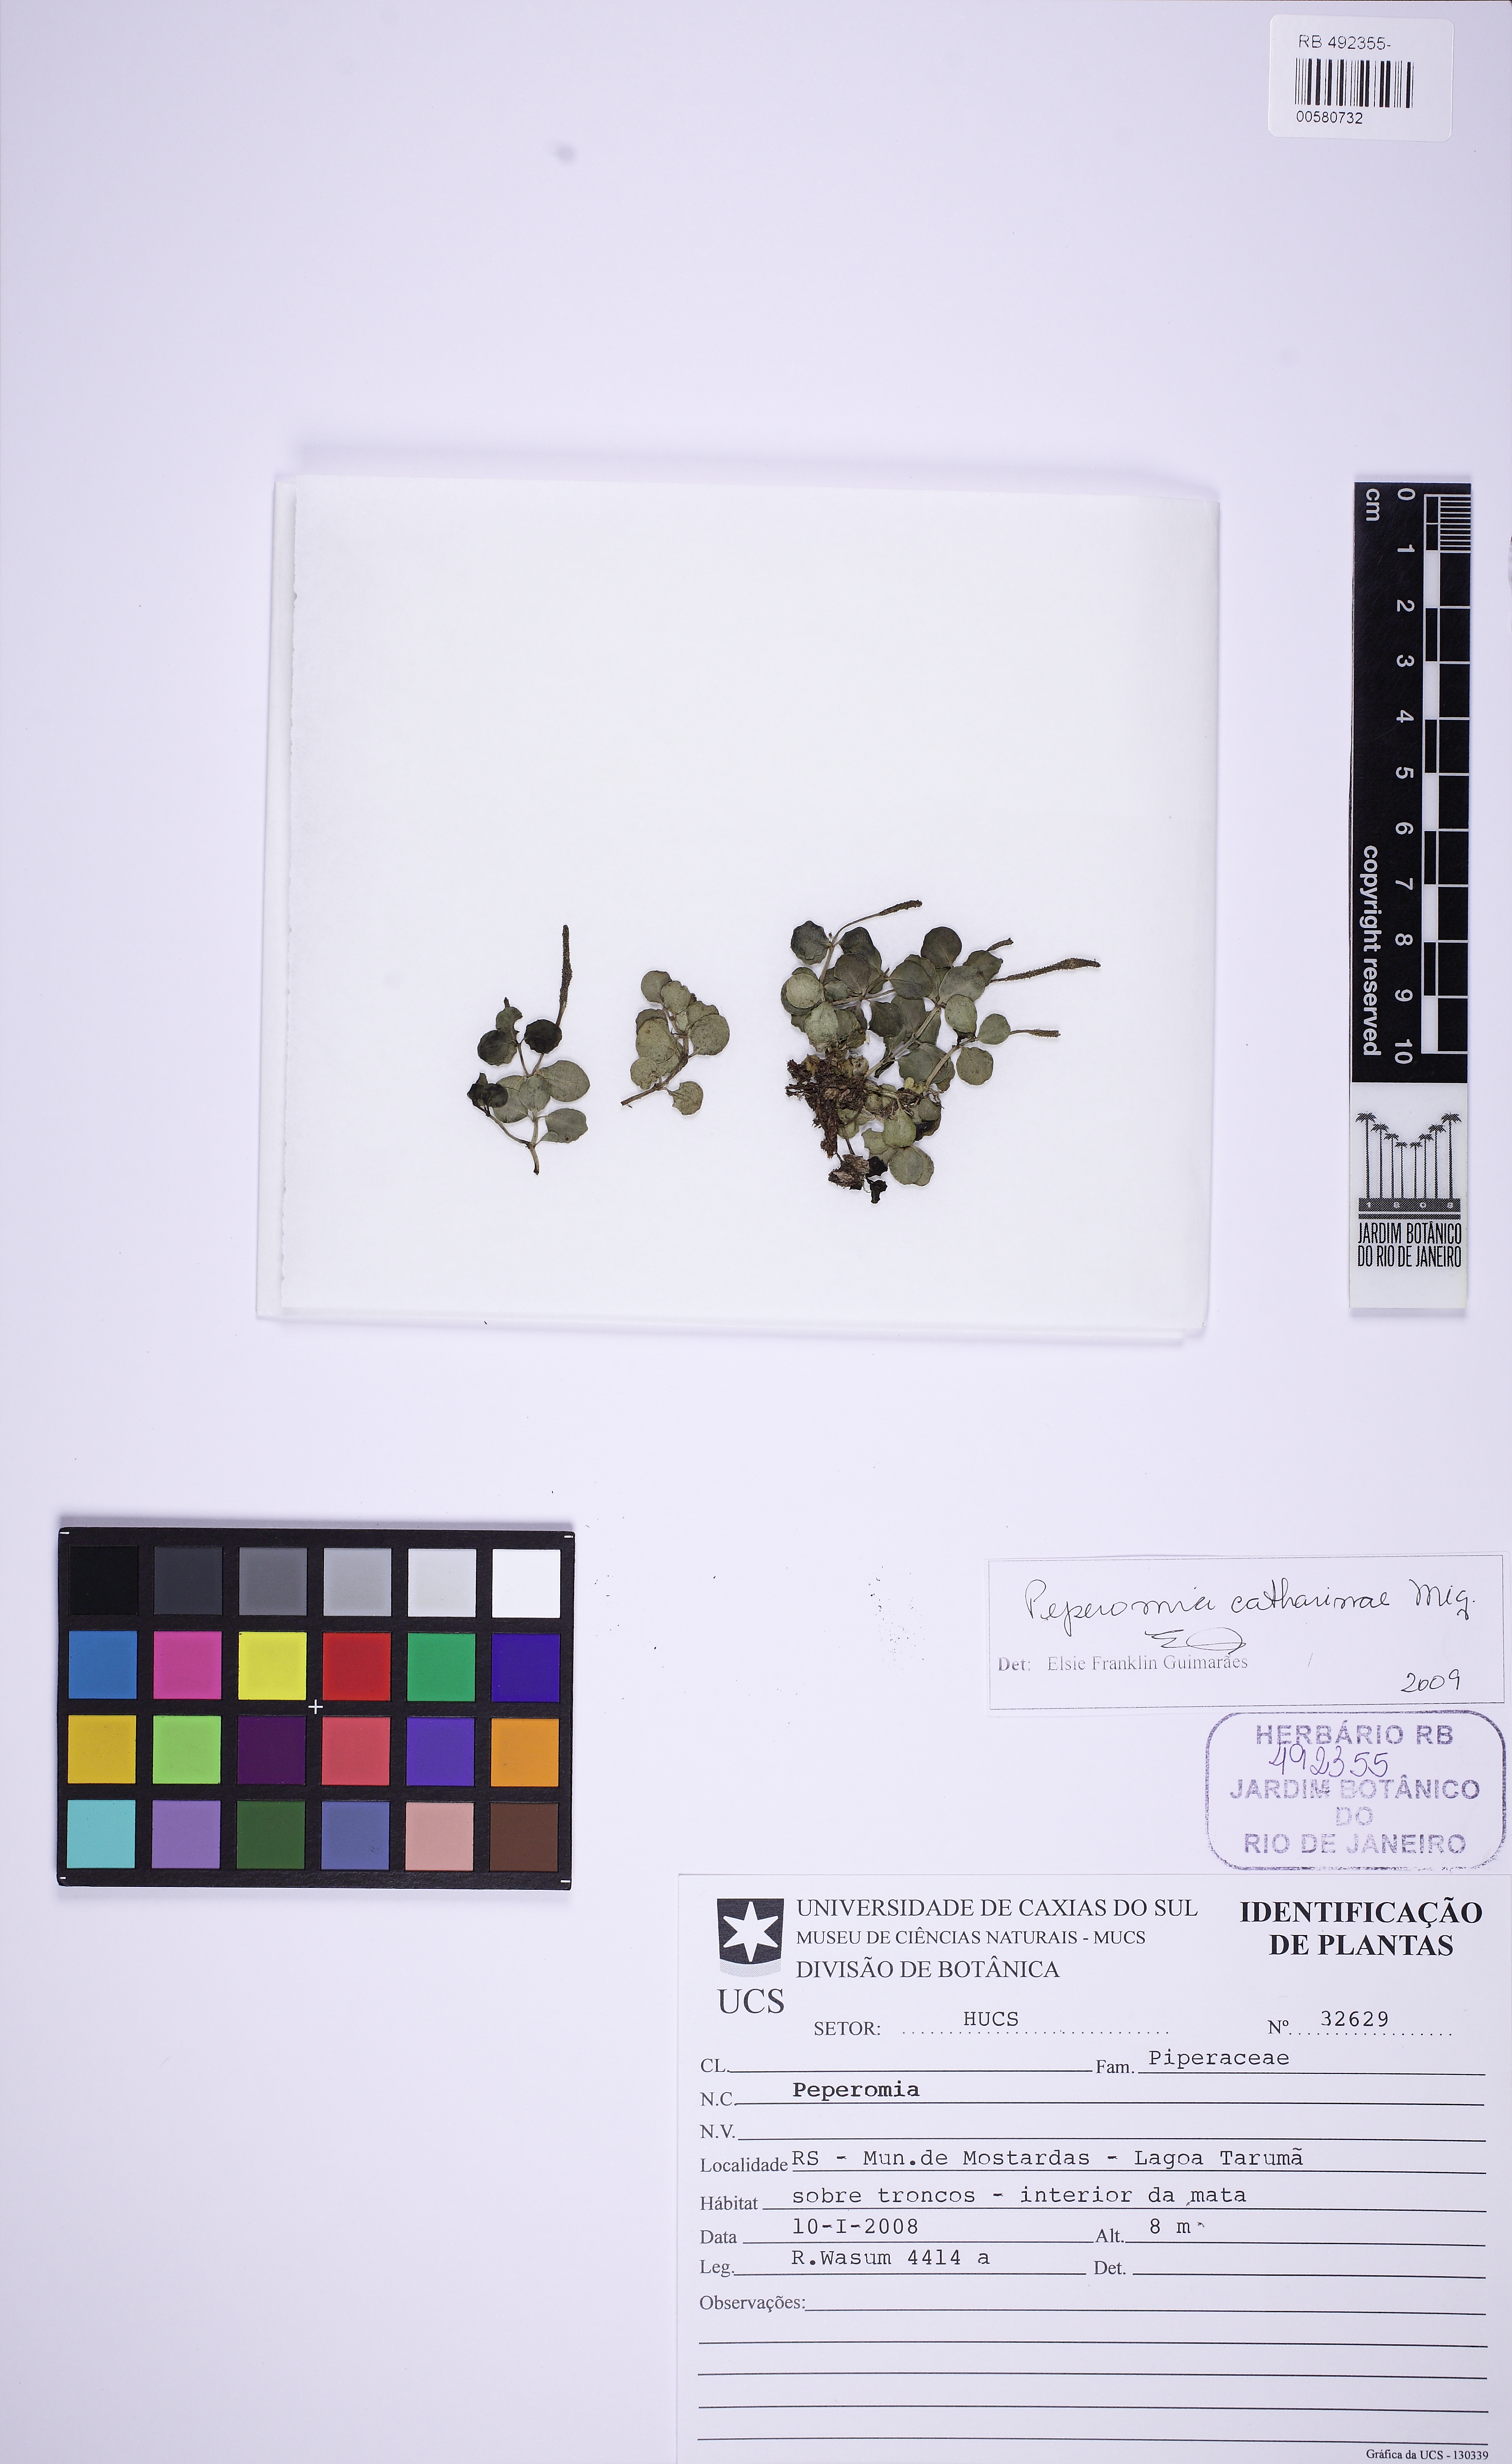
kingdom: Plantae
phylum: Tracheophyta
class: Magnoliopsida
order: Piperales
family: Piperaceae
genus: Peperomia
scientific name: Peperomia catharinae
